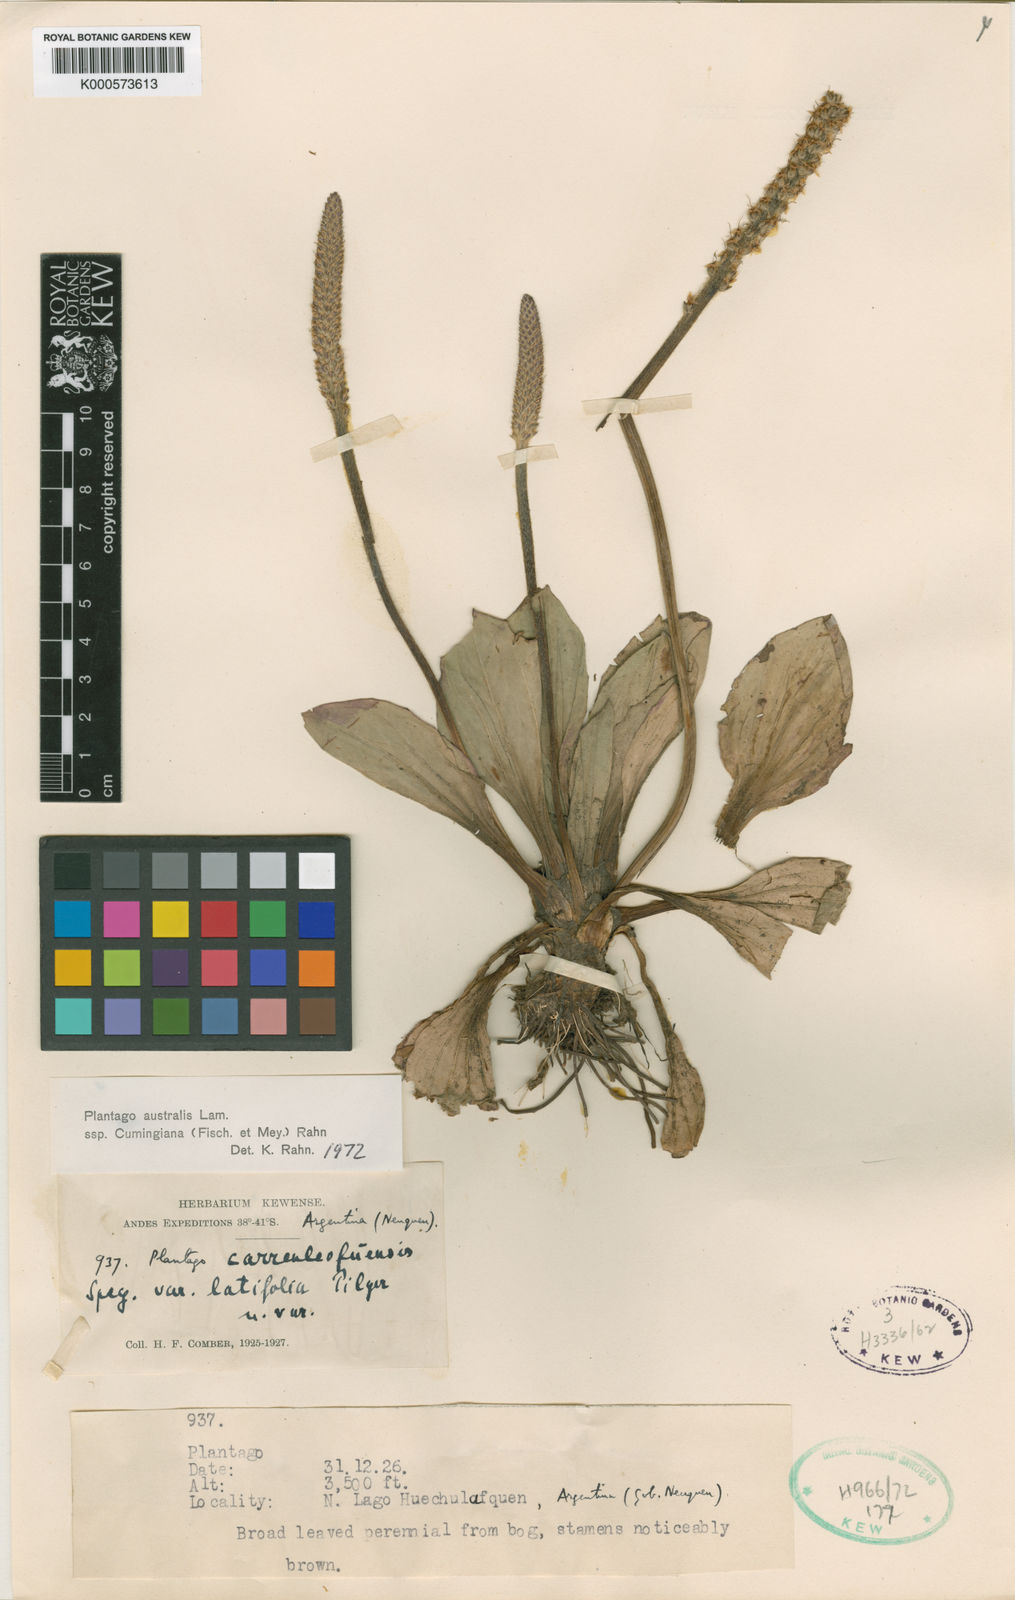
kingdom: Plantae
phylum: Tracheophyta
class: Magnoliopsida
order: Lamiales
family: Plantaginaceae
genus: Plantago
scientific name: Plantago
